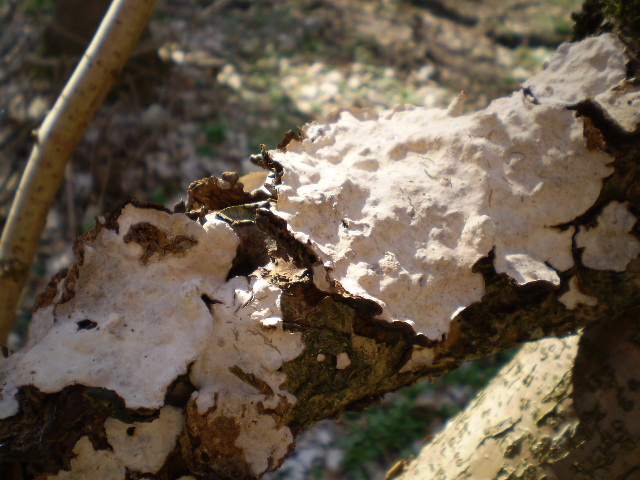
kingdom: Fungi
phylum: Basidiomycota
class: Agaricomycetes
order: Russulales
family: Stereaceae
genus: Stereum
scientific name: Stereum rugosum
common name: rynket lædersvamp
